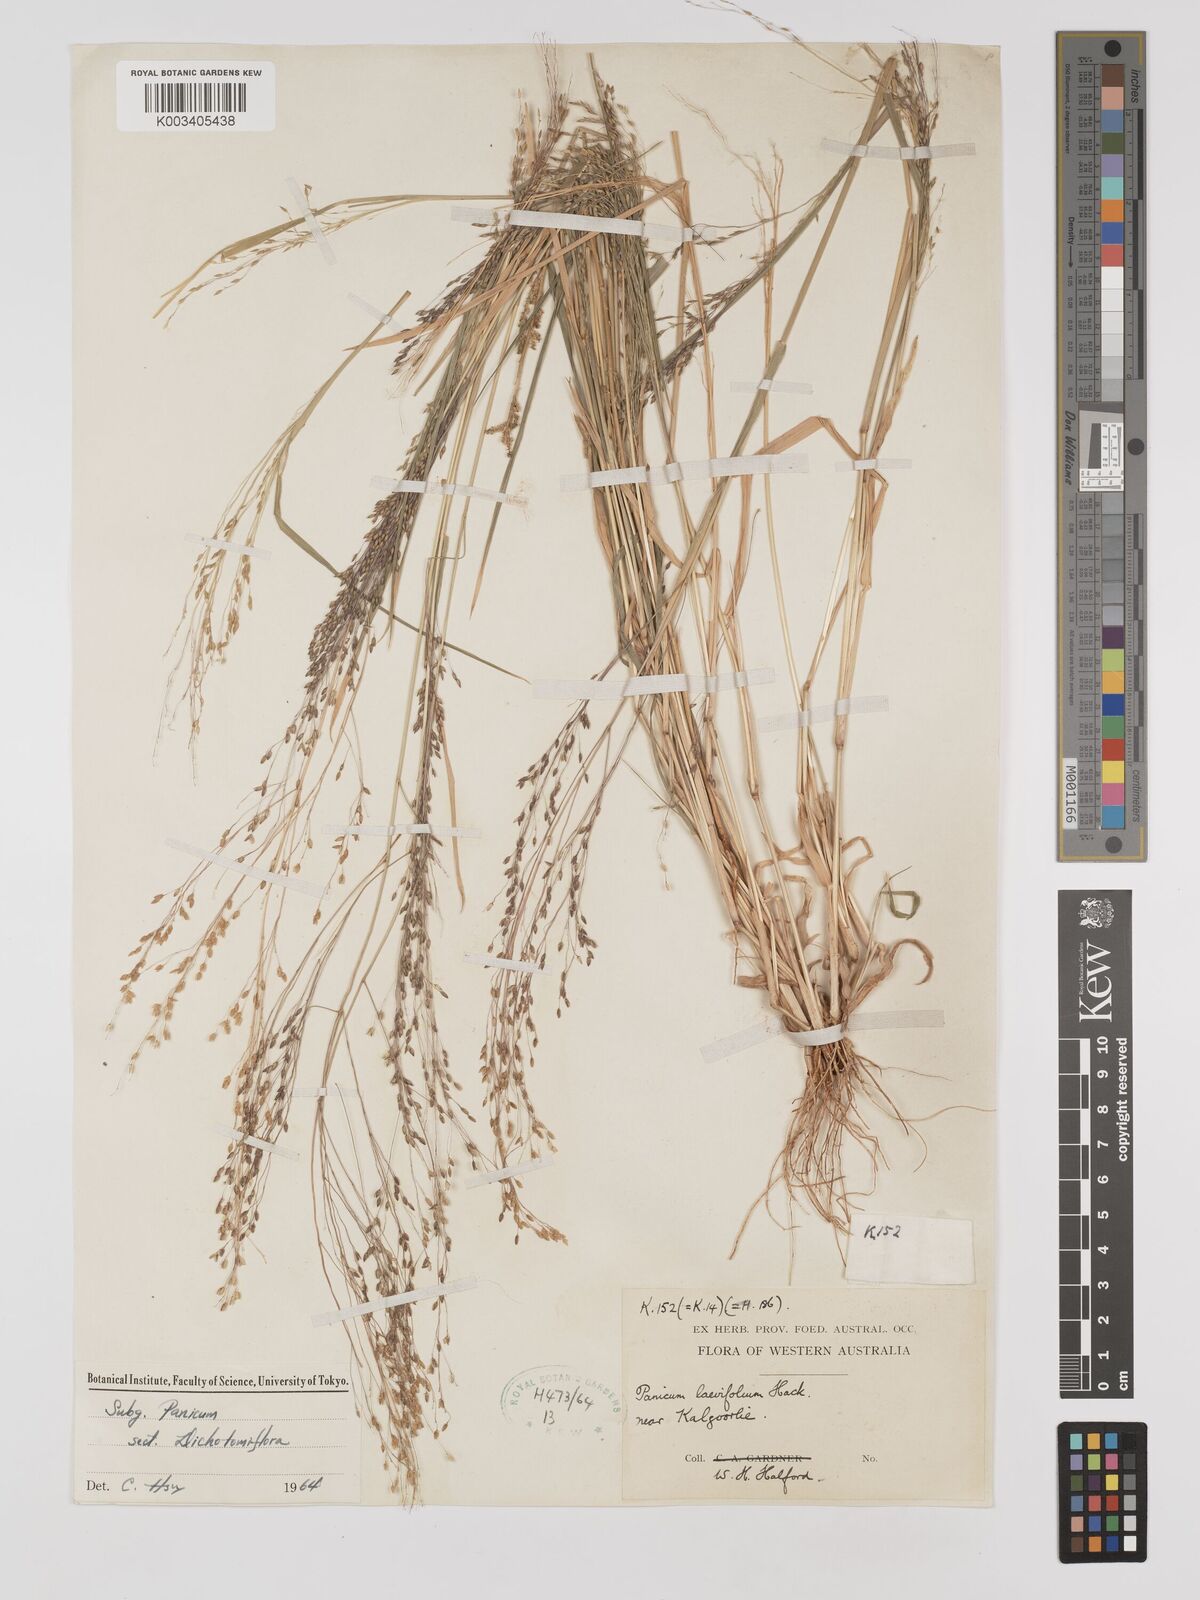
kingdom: Plantae
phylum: Tracheophyta
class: Liliopsida
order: Poales
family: Poaceae
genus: Panicum
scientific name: Panicum schinzii
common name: Sweet grass
